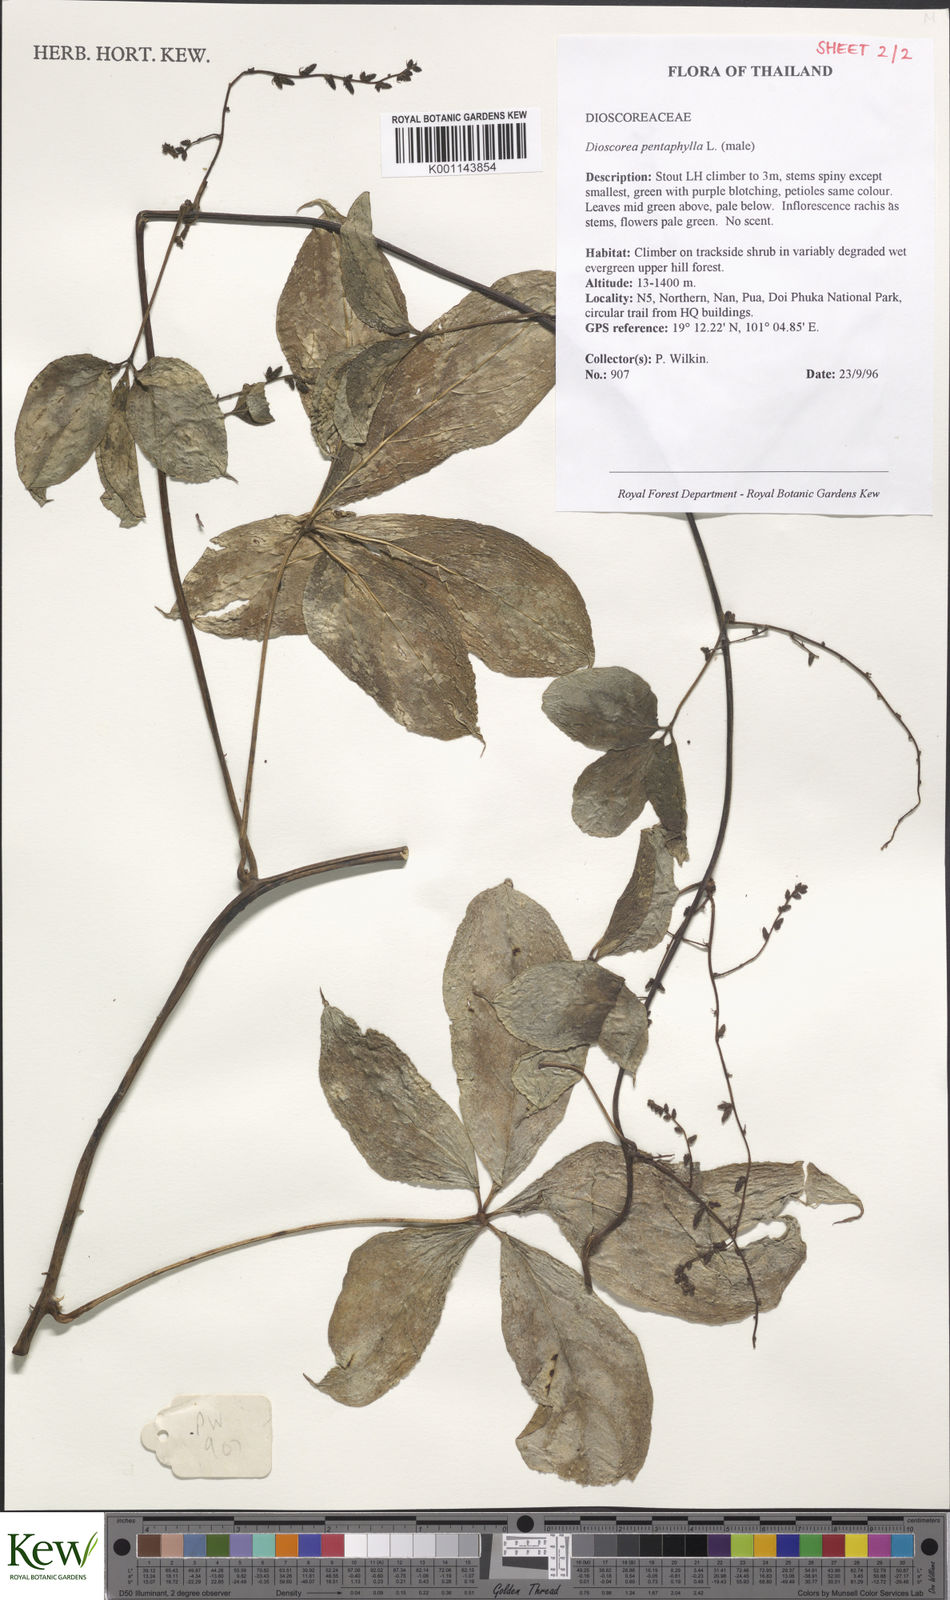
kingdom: Plantae
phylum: Tracheophyta
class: Liliopsida
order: Dioscoreales
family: Dioscoreaceae
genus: Dioscorea
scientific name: Dioscorea pentaphylla
